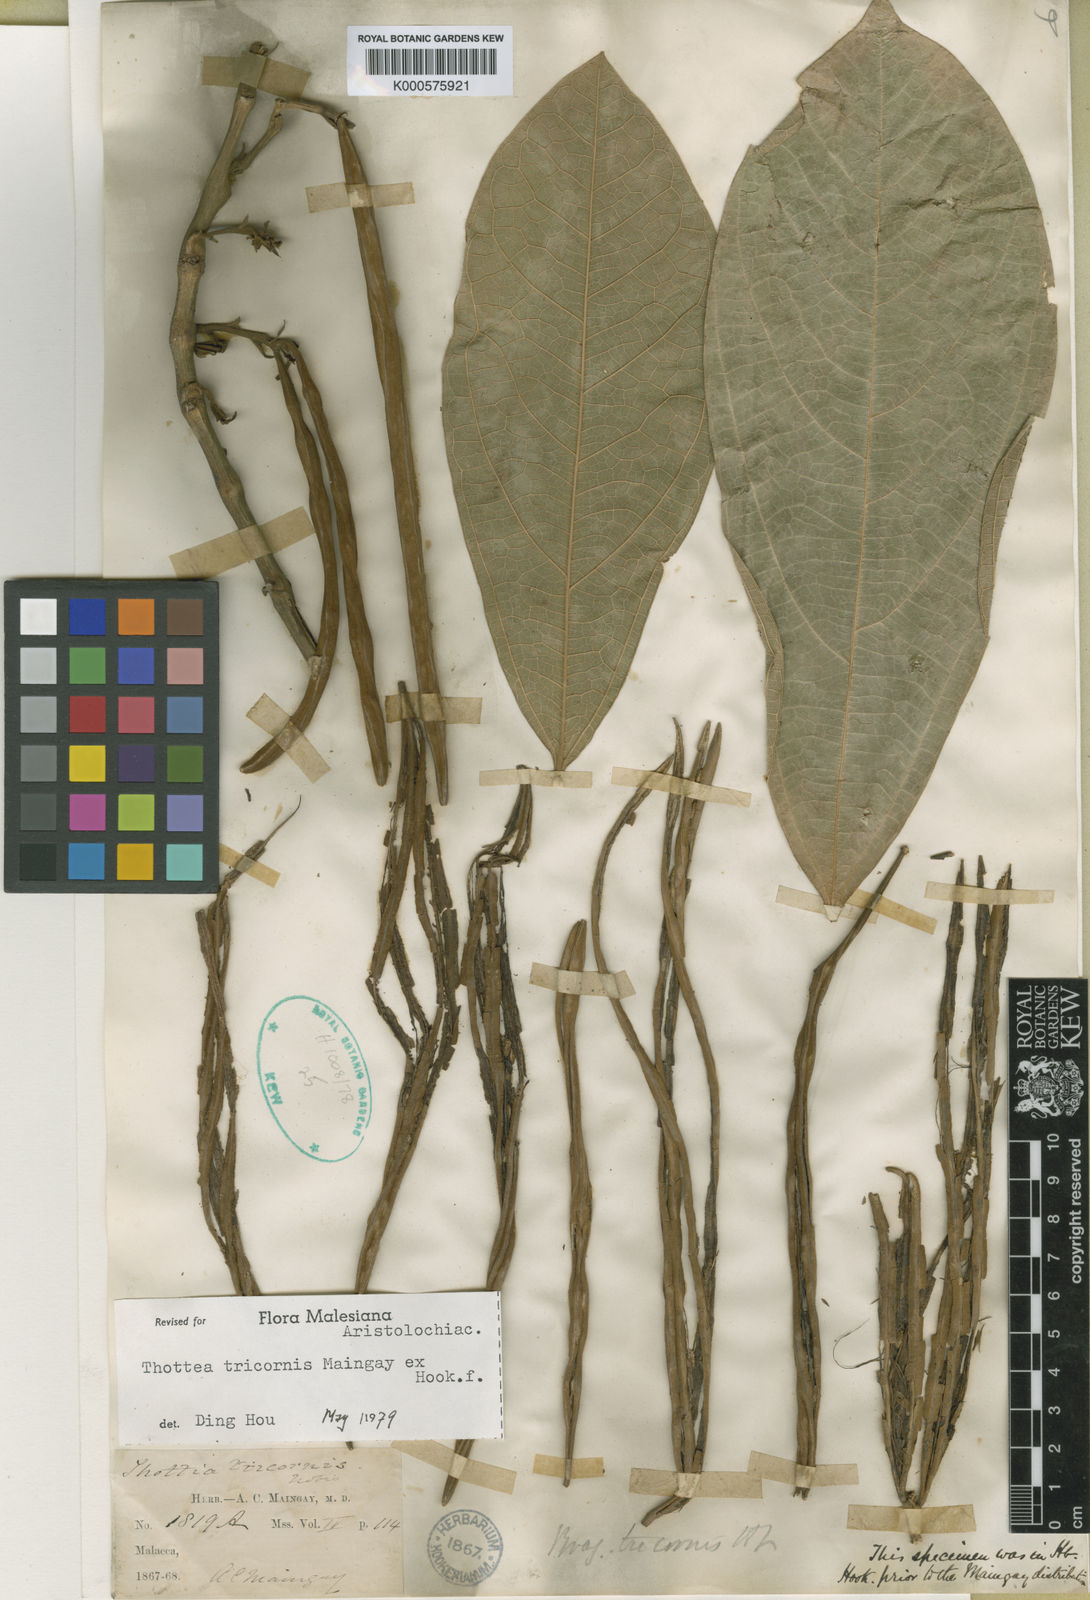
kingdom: Plantae
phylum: Tracheophyta
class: Magnoliopsida
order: Piperales
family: Aristolochiaceae
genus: Thottea
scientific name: Thottea tricornis
